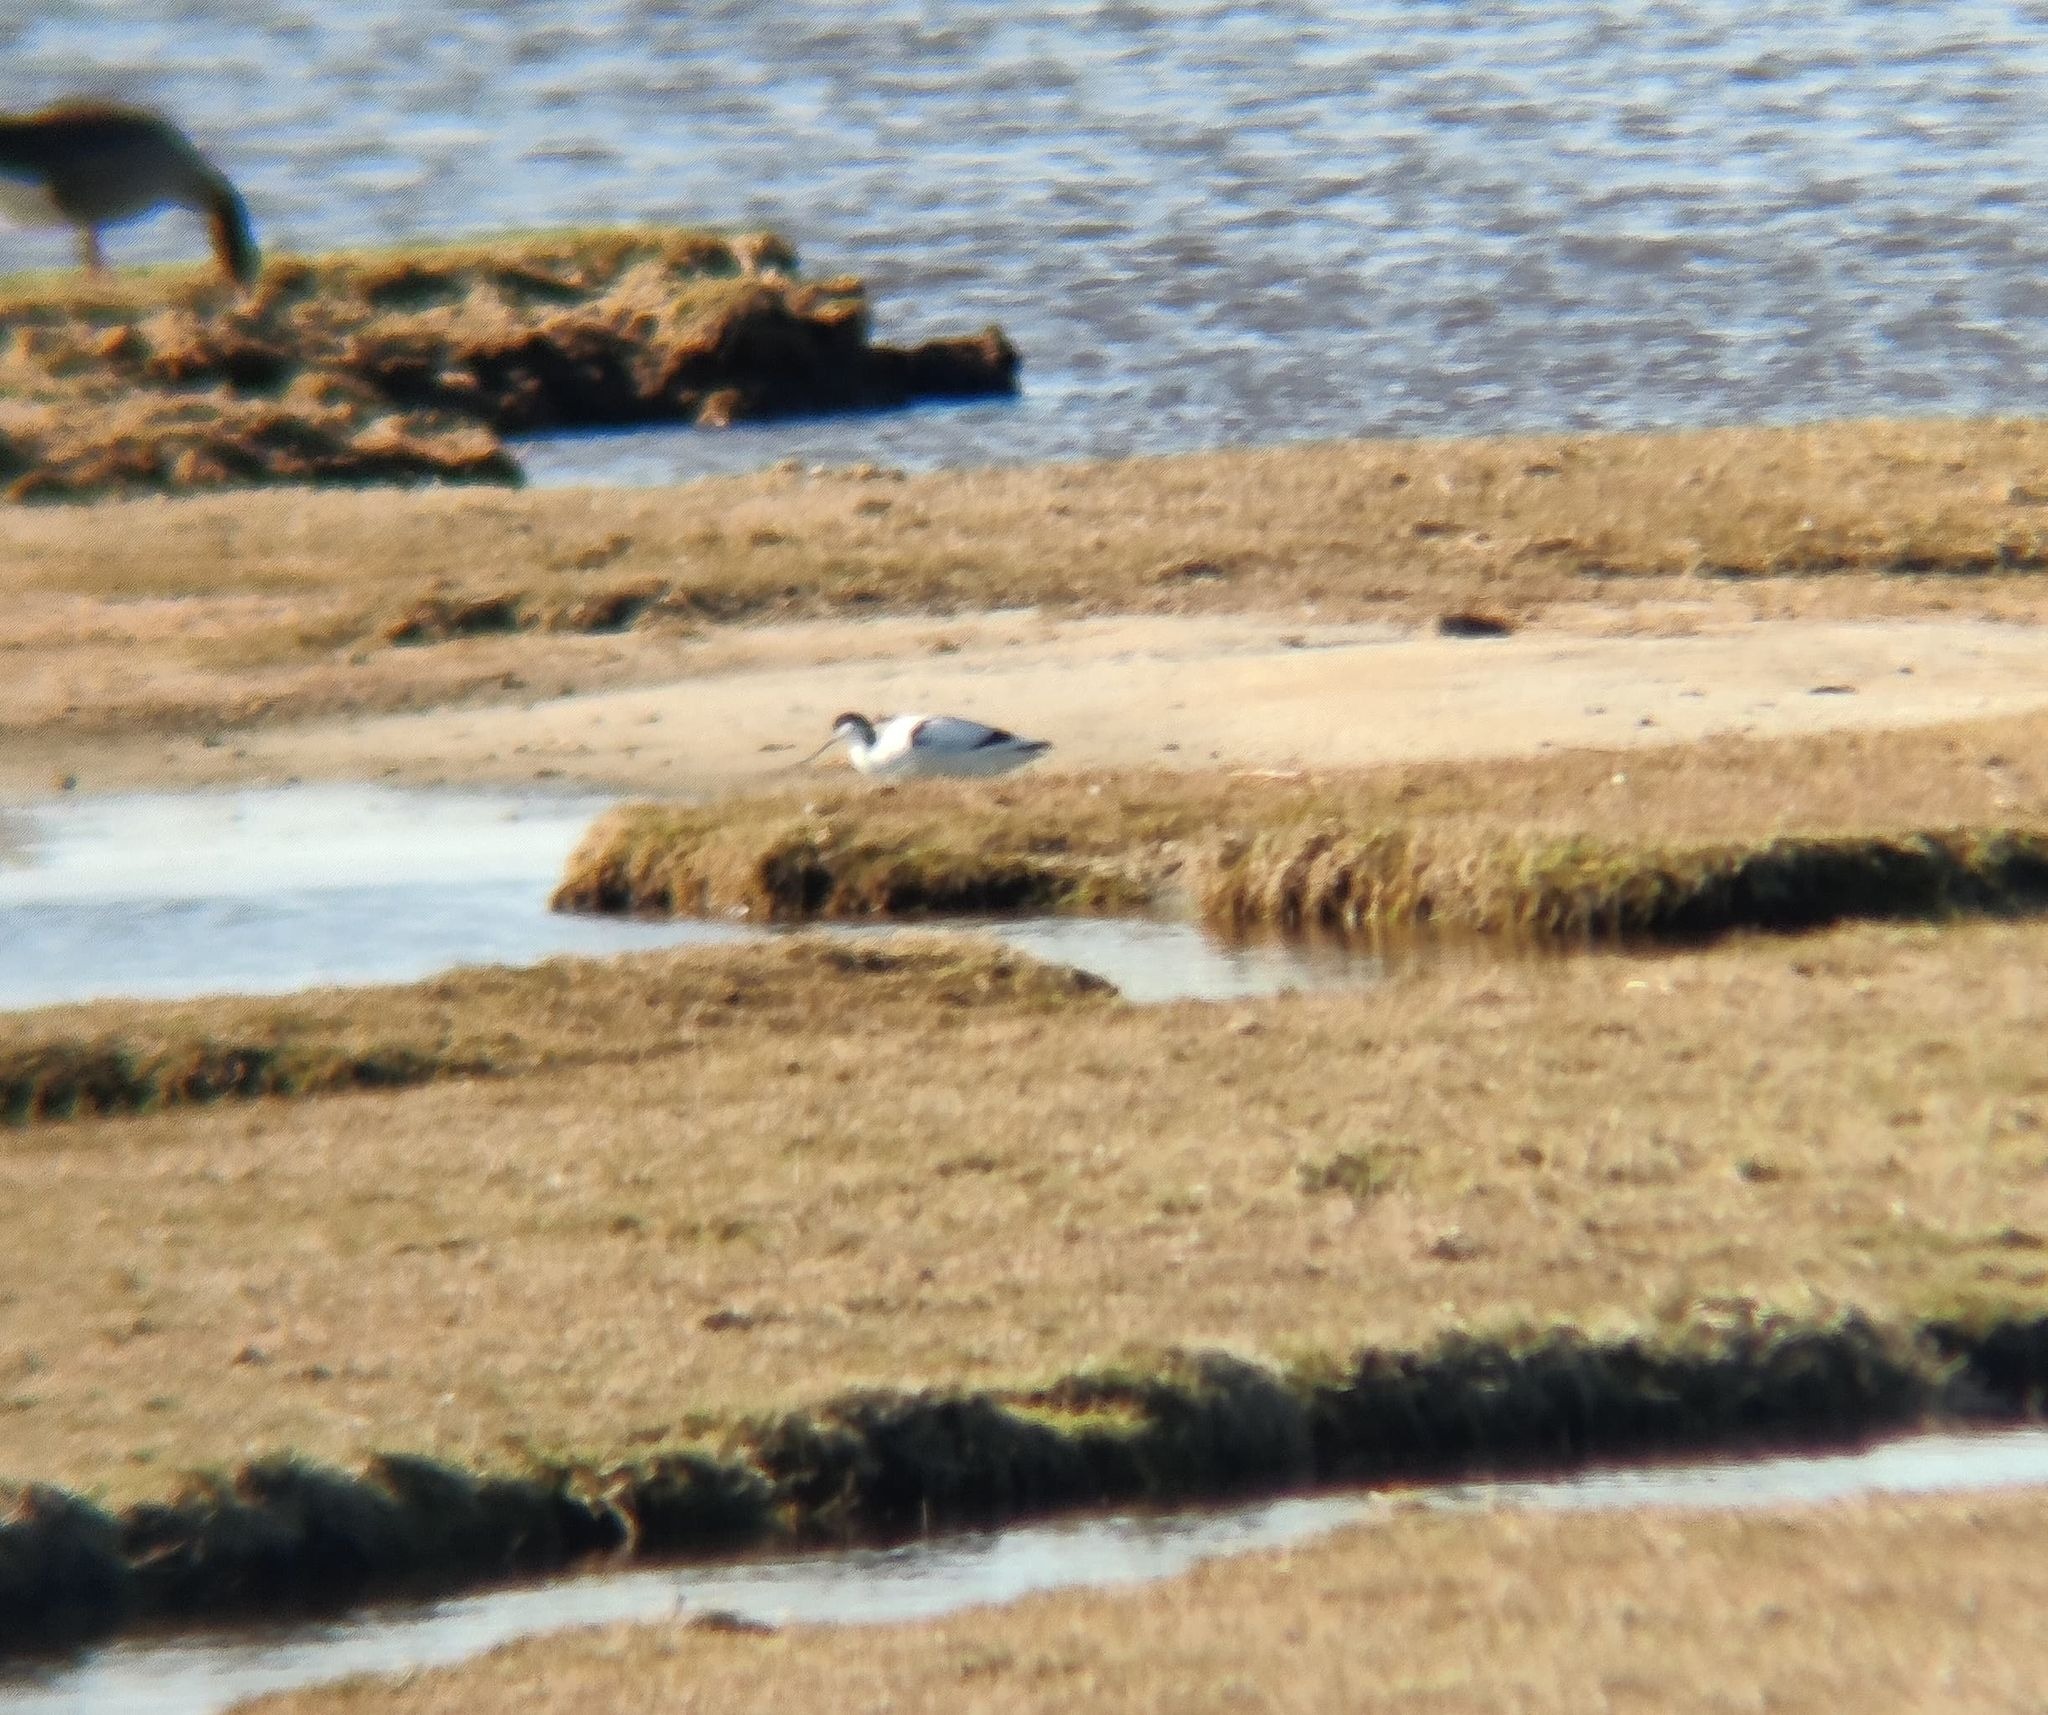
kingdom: Animalia
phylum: Chordata
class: Aves
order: Charadriiformes
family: Recurvirostridae
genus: Recurvirostra
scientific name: Recurvirostra avosetta
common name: Klyde
